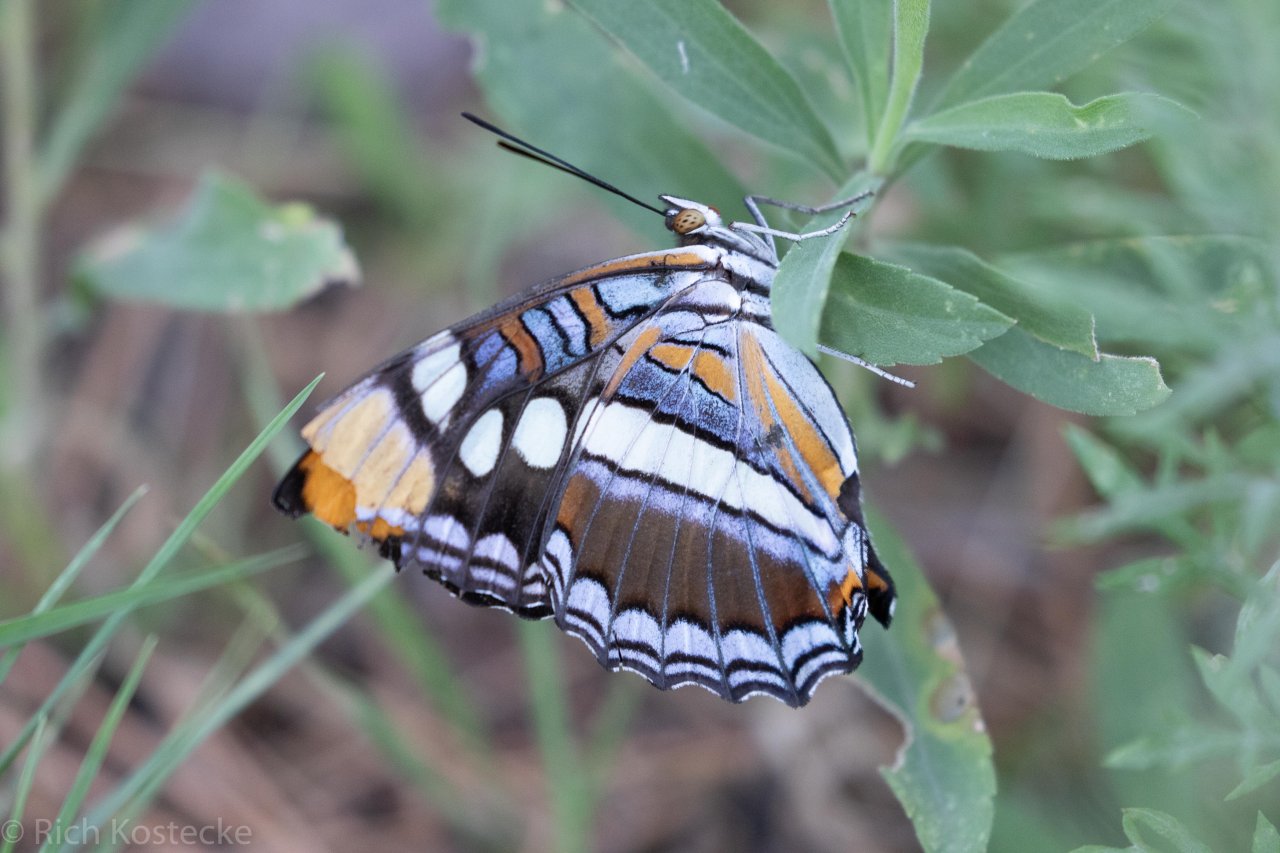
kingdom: Animalia
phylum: Arthropoda
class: Insecta
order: Lepidoptera
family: Nymphalidae
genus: Limenitis
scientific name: Limenitis bredowii
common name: Arizona Sister
